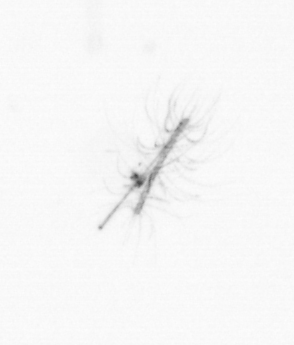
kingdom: Chromista
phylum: Ochrophyta
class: Bacillariophyceae
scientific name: Bacillariophyceae
